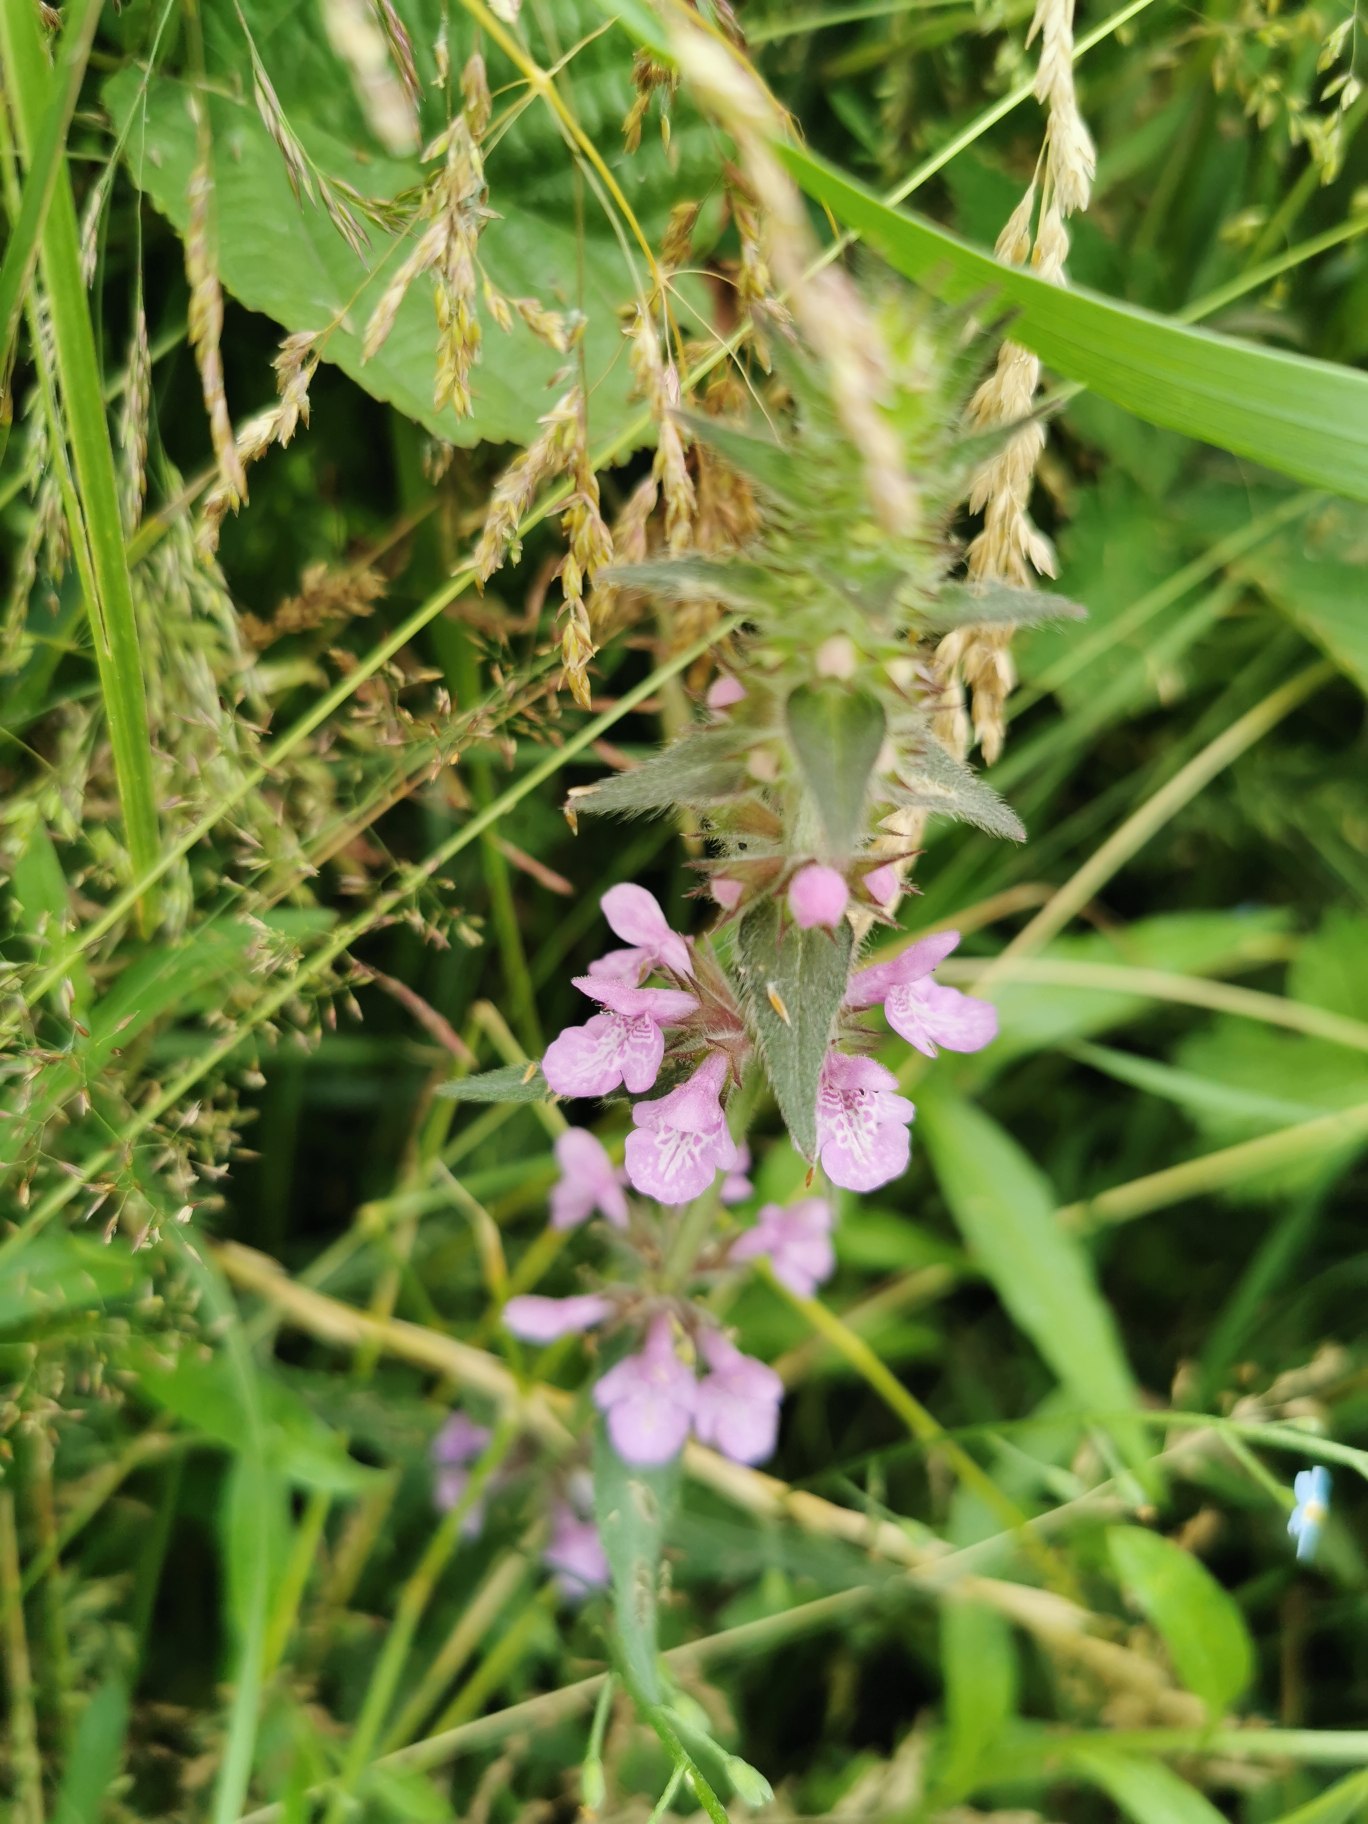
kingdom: Plantae
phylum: Tracheophyta
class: Magnoliopsida
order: Lamiales
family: Lamiaceae
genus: Stachys
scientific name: Stachys palustris
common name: Kær-galtetand
